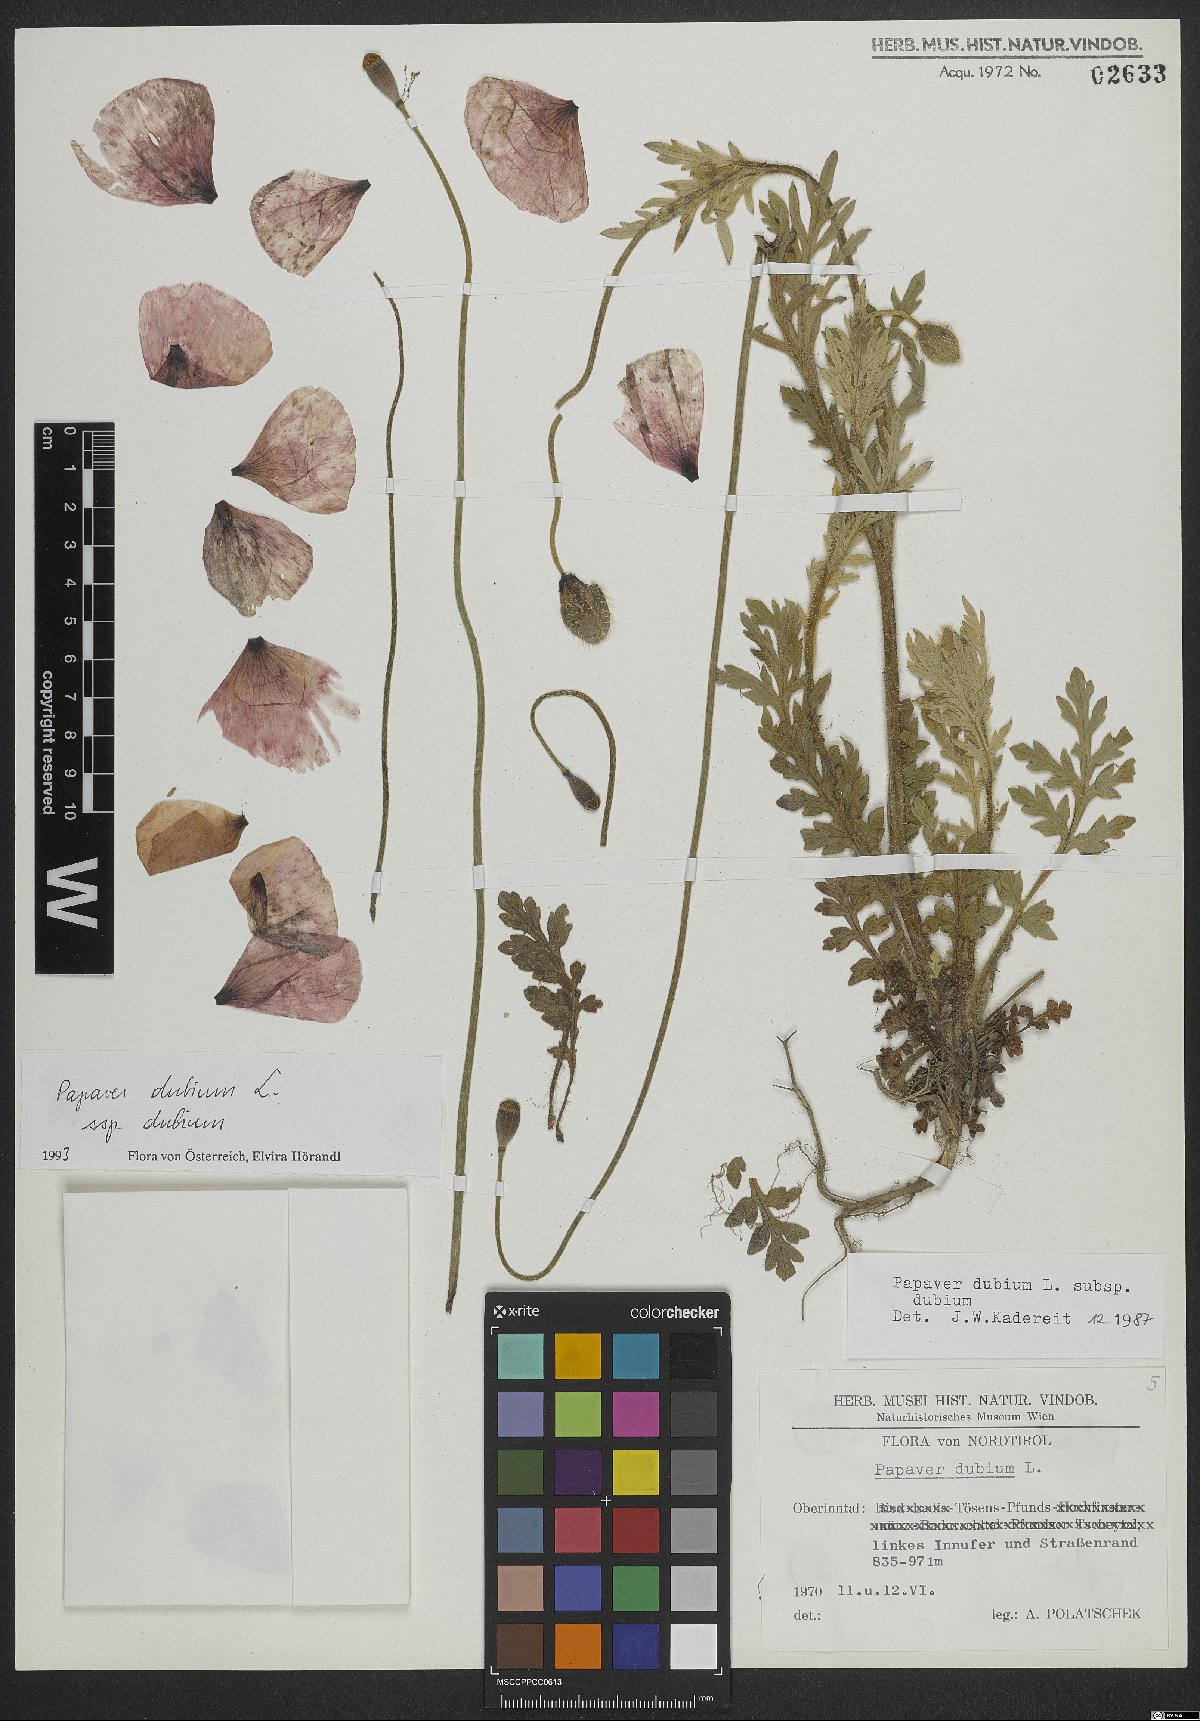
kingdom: Plantae
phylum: Tracheophyta
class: Magnoliopsida
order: Ranunculales
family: Papaveraceae
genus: Papaver
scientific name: Papaver dubium
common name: Long-headed poppy
